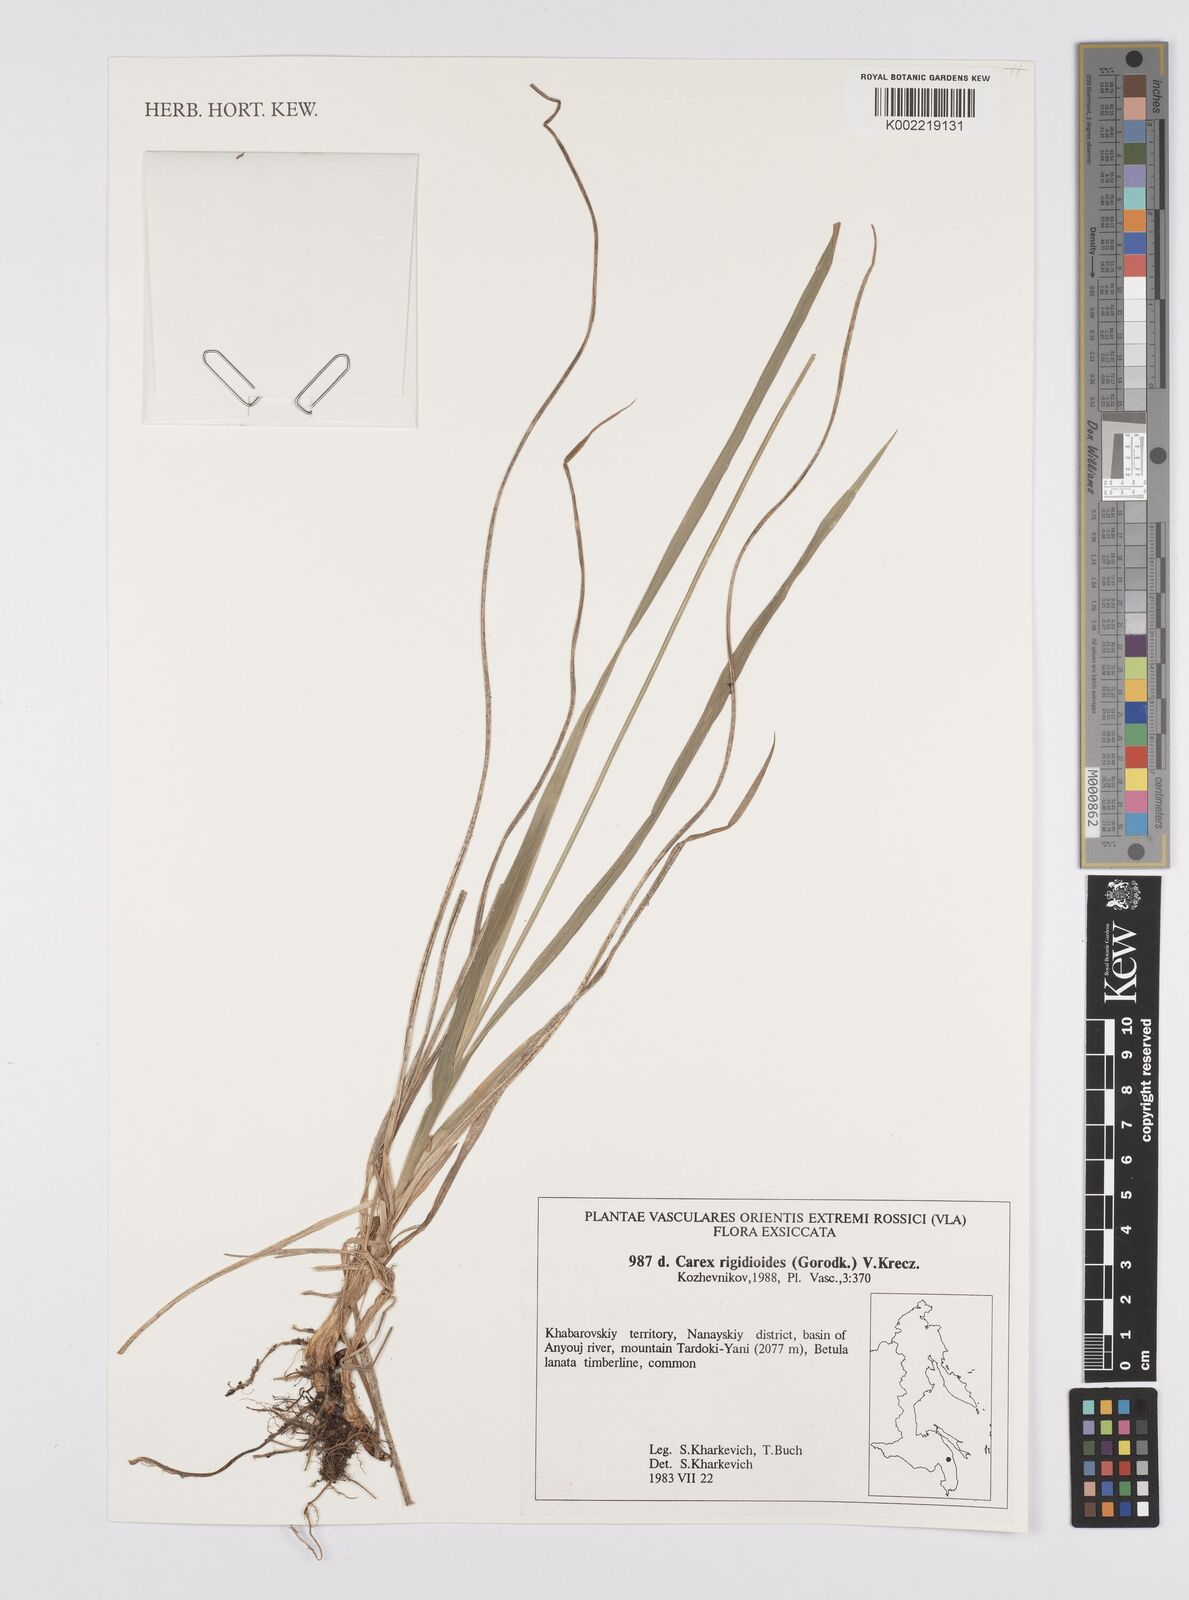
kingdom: Plantae
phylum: Tracheophyta
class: Liliopsida
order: Poales
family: Cyperaceae
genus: Carex
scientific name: Carex rigidioides
